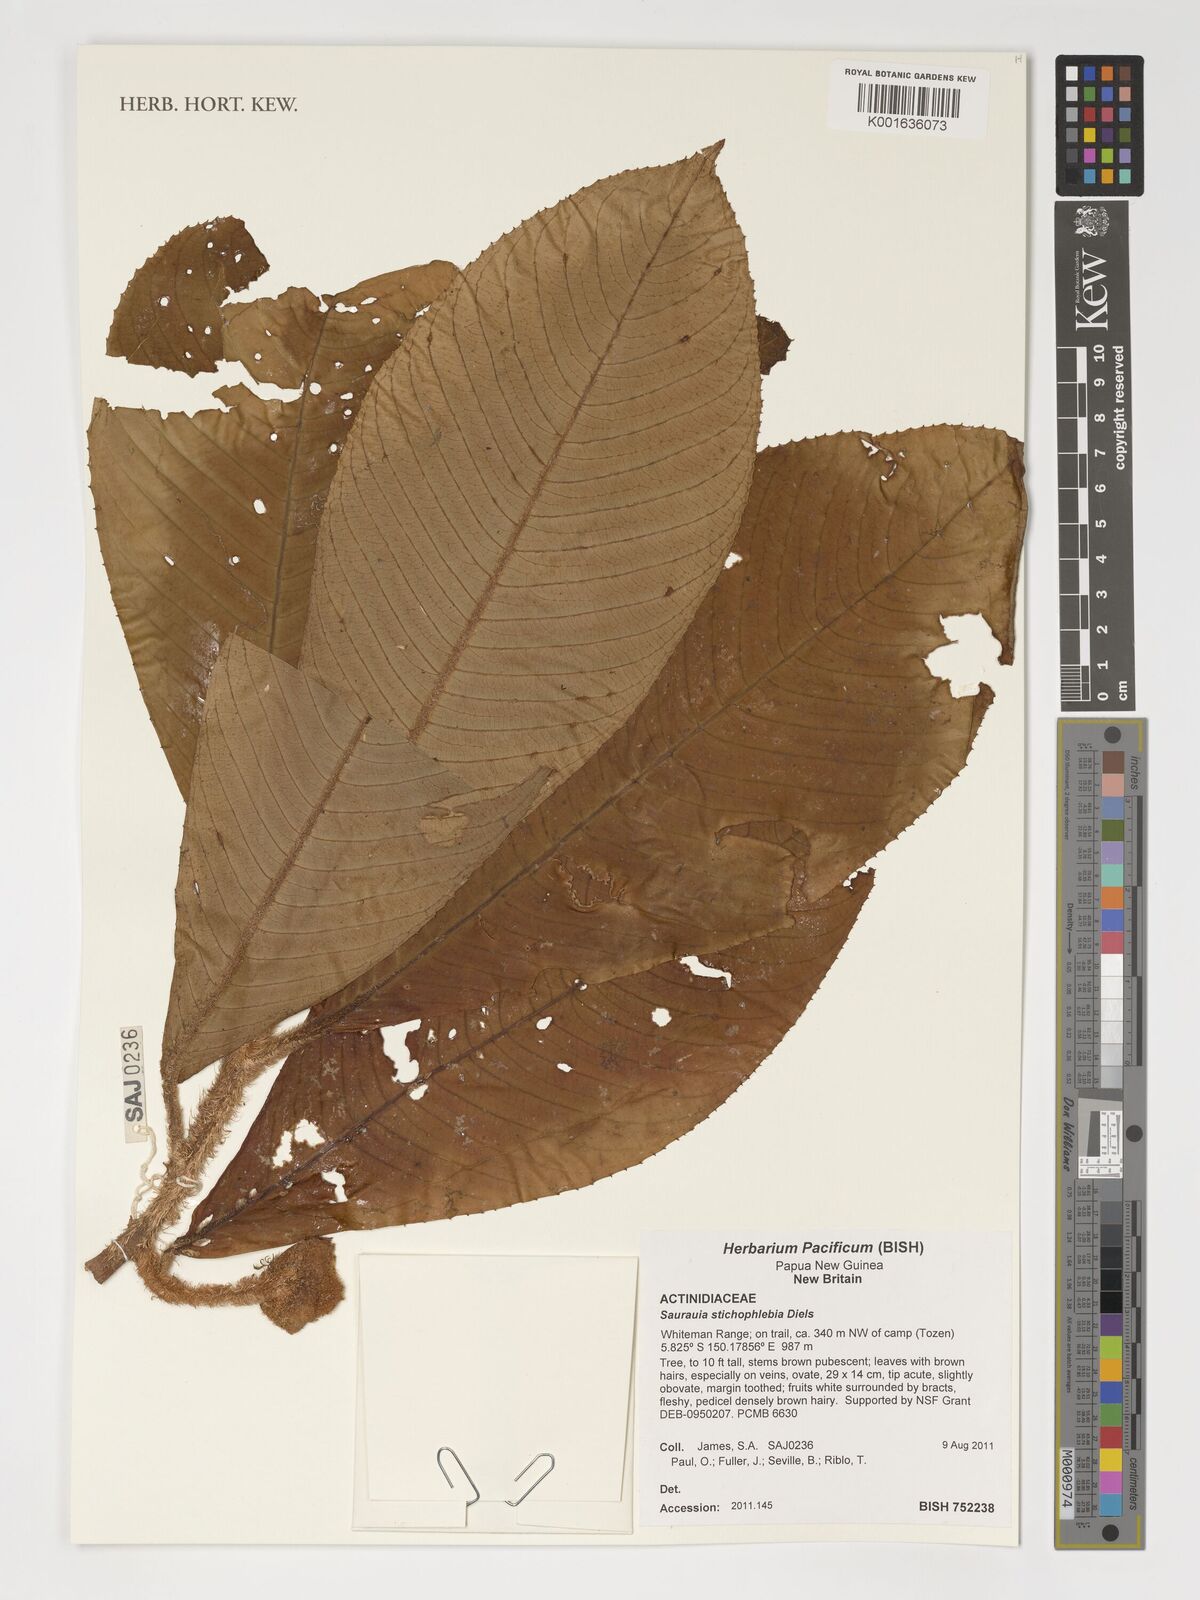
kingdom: Plantae
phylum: Tracheophyta
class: Magnoliopsida
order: Ericales
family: Actinidiaceae
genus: Saurauia
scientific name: Saurauia
